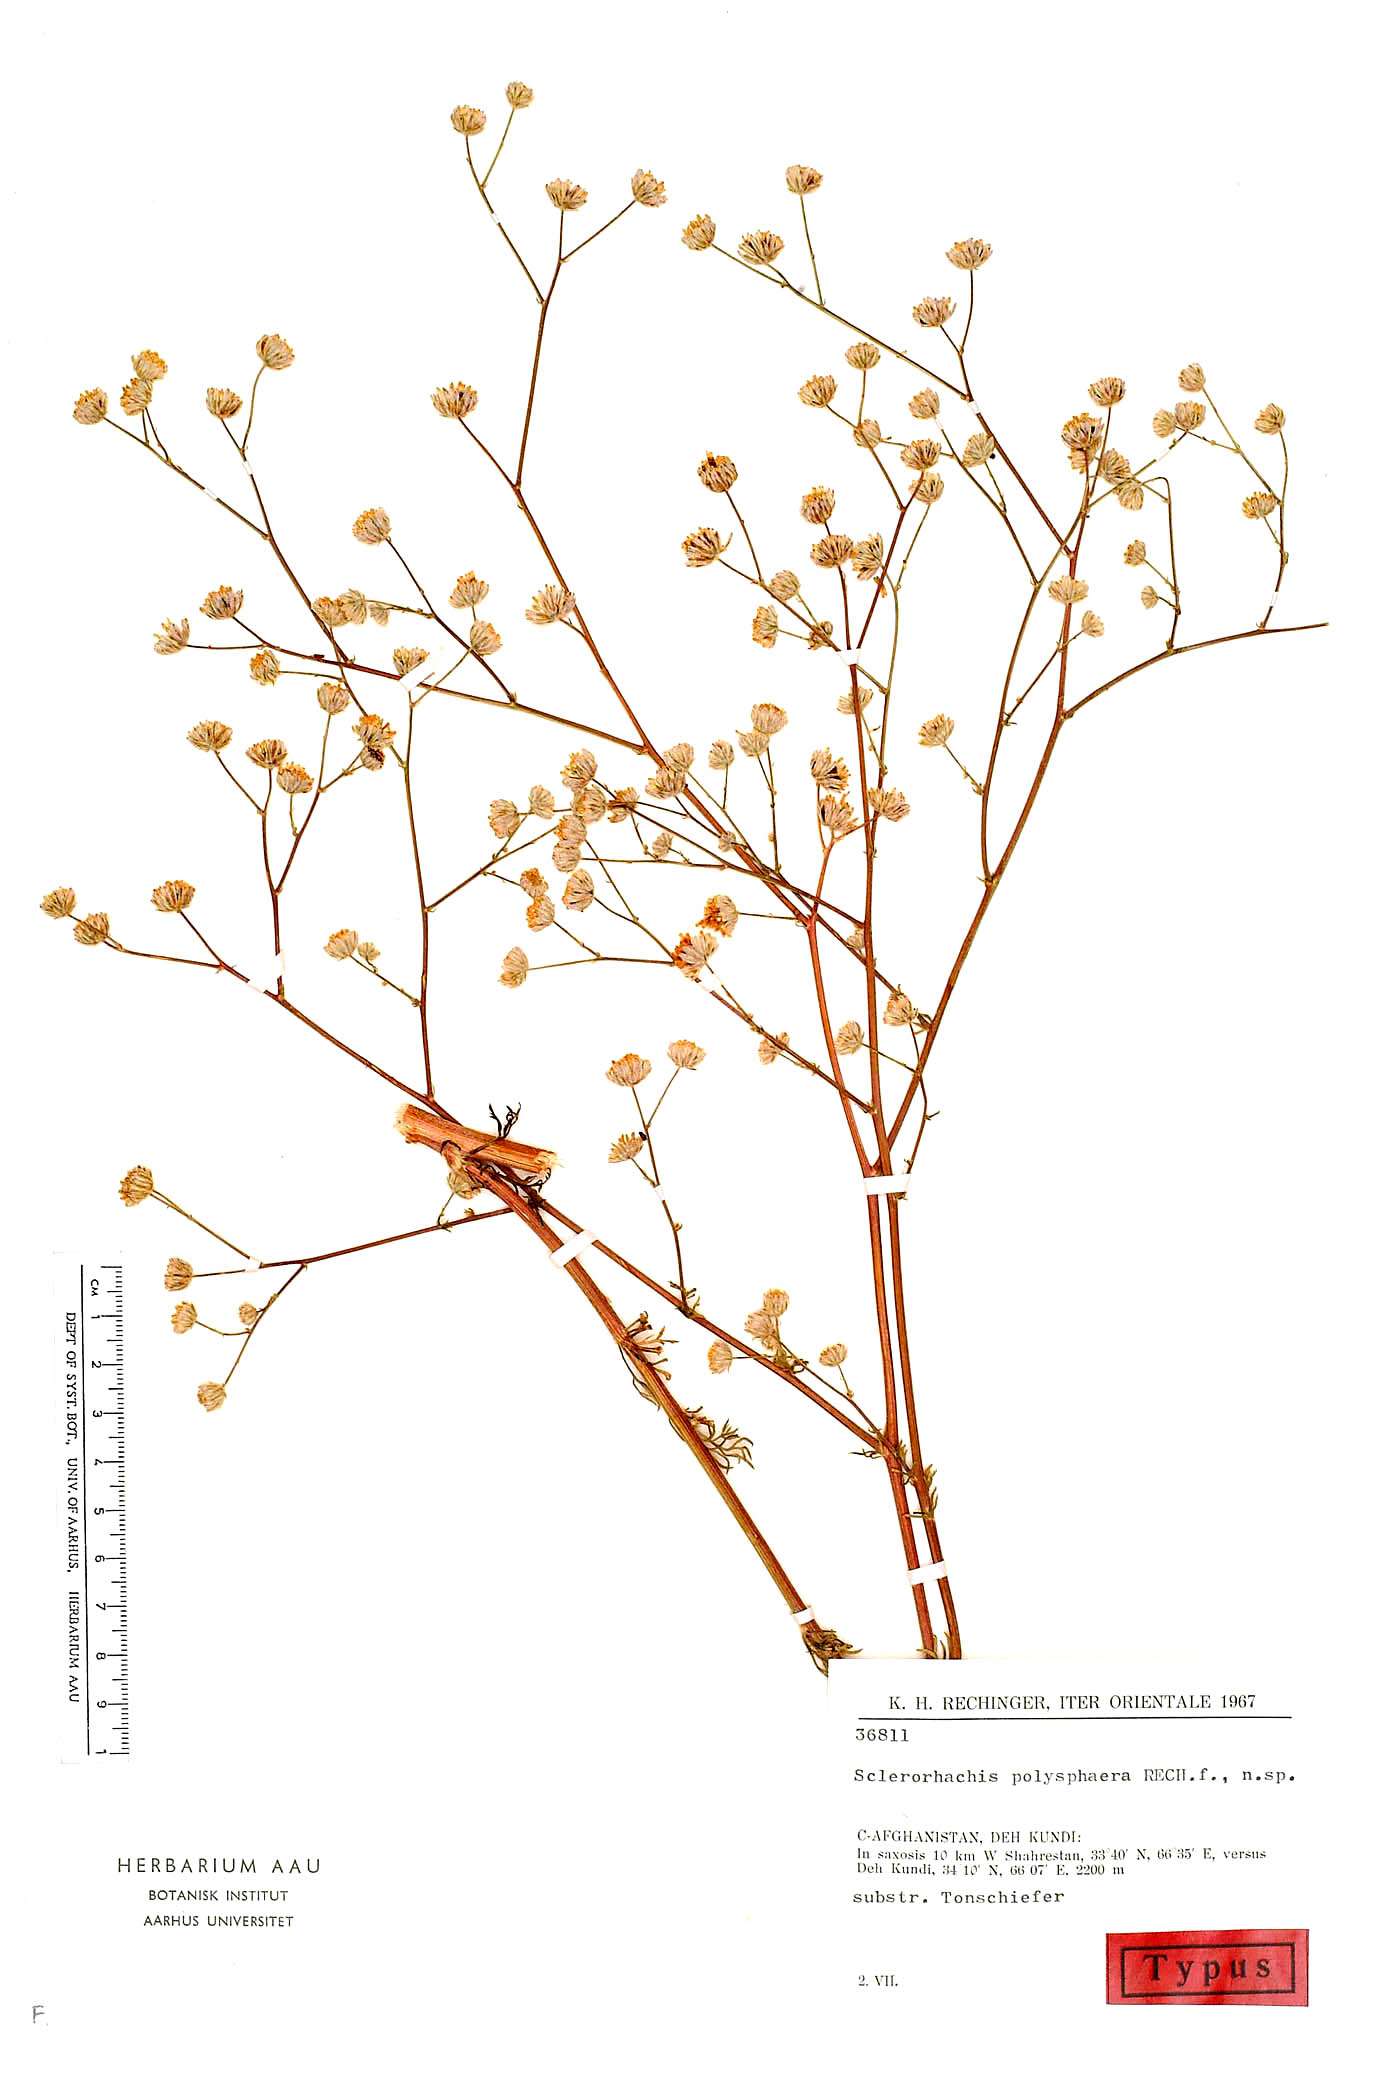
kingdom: Plantae
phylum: Tracheophyta
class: Magnoliopsida
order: Asterales
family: Asteraceae
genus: Sclerorhachis
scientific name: Sclerorhachis polysphaera
